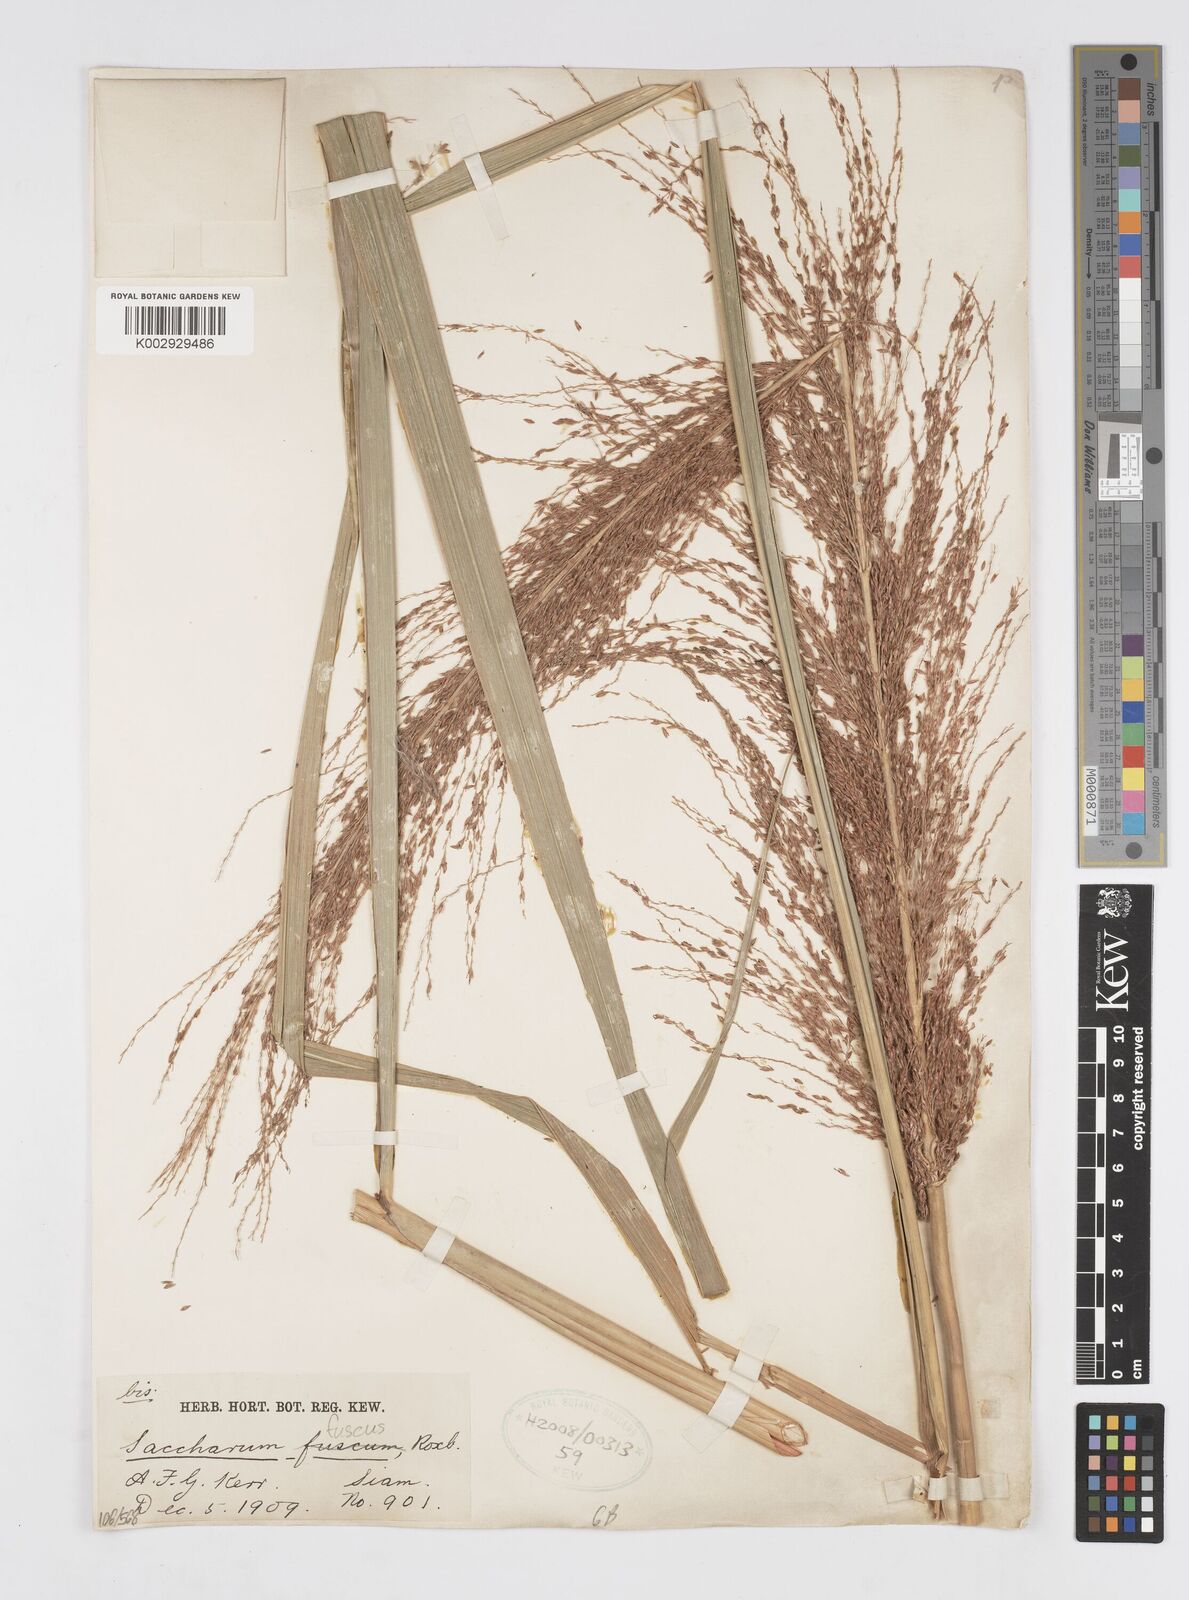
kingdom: Plantae
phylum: Tracheophyta
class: Liliopsida
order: Poales
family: Poaceae
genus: Miscanthus
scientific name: Miscanthus fuscus
